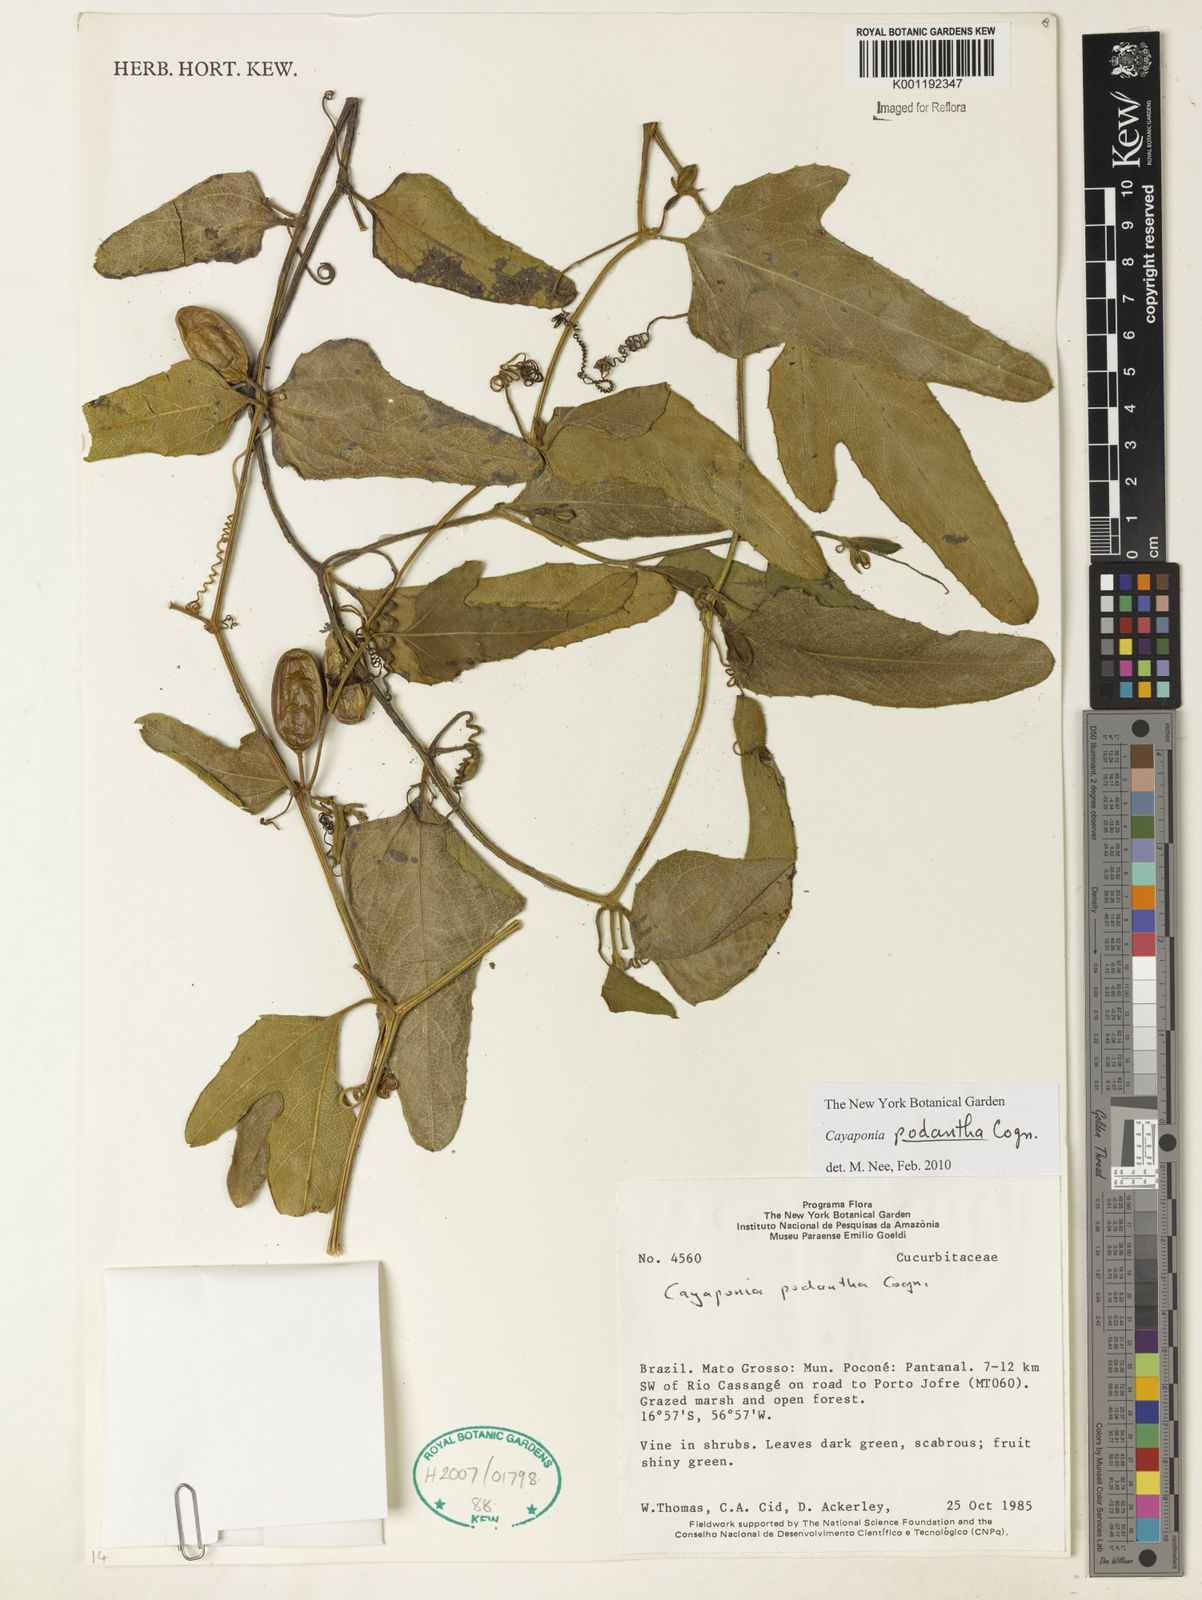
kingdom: Plantae
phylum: Tracheophyta
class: Magnoliopsida
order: Cucurbitales
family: Cucurbitaceae
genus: Cayaponia
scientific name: Cayaponia podantha
